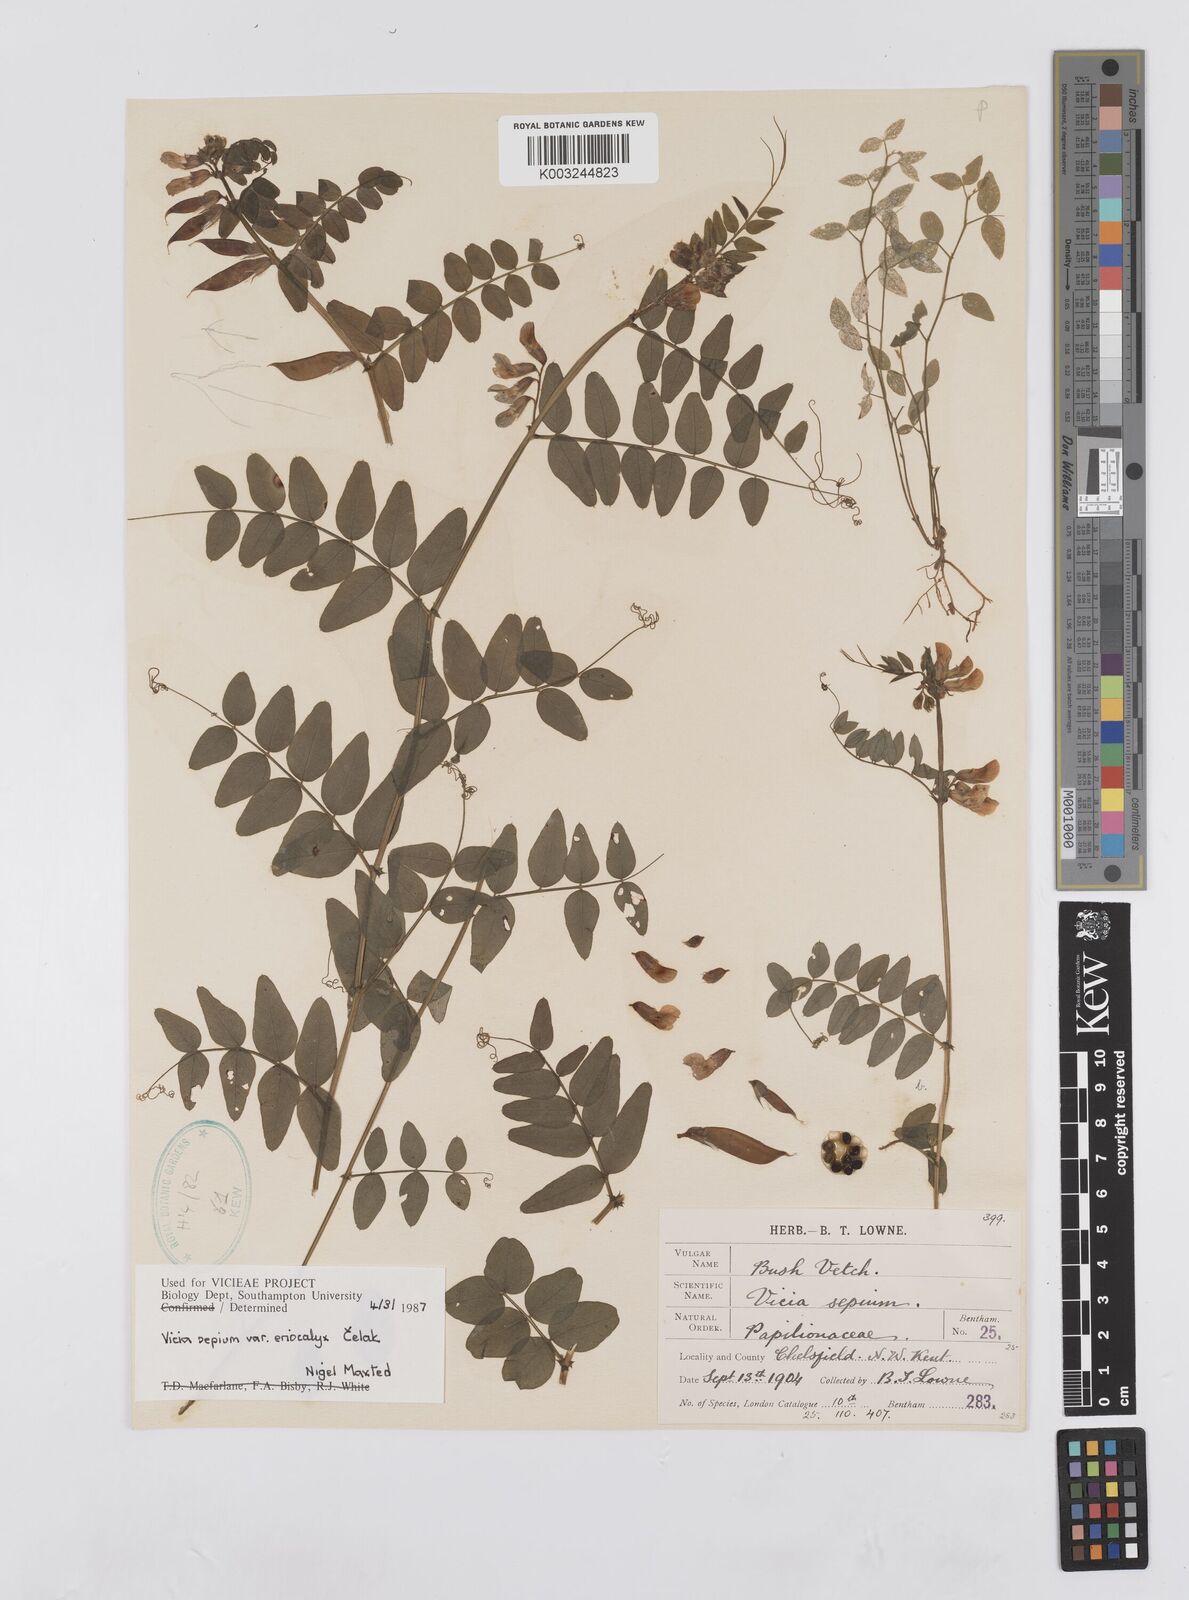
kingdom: Plantae
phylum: Tracheophyta
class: Magnoliopsida
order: Fabales
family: Fabaceae
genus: Vicia
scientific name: Vicia sepium
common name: Bush vetch
